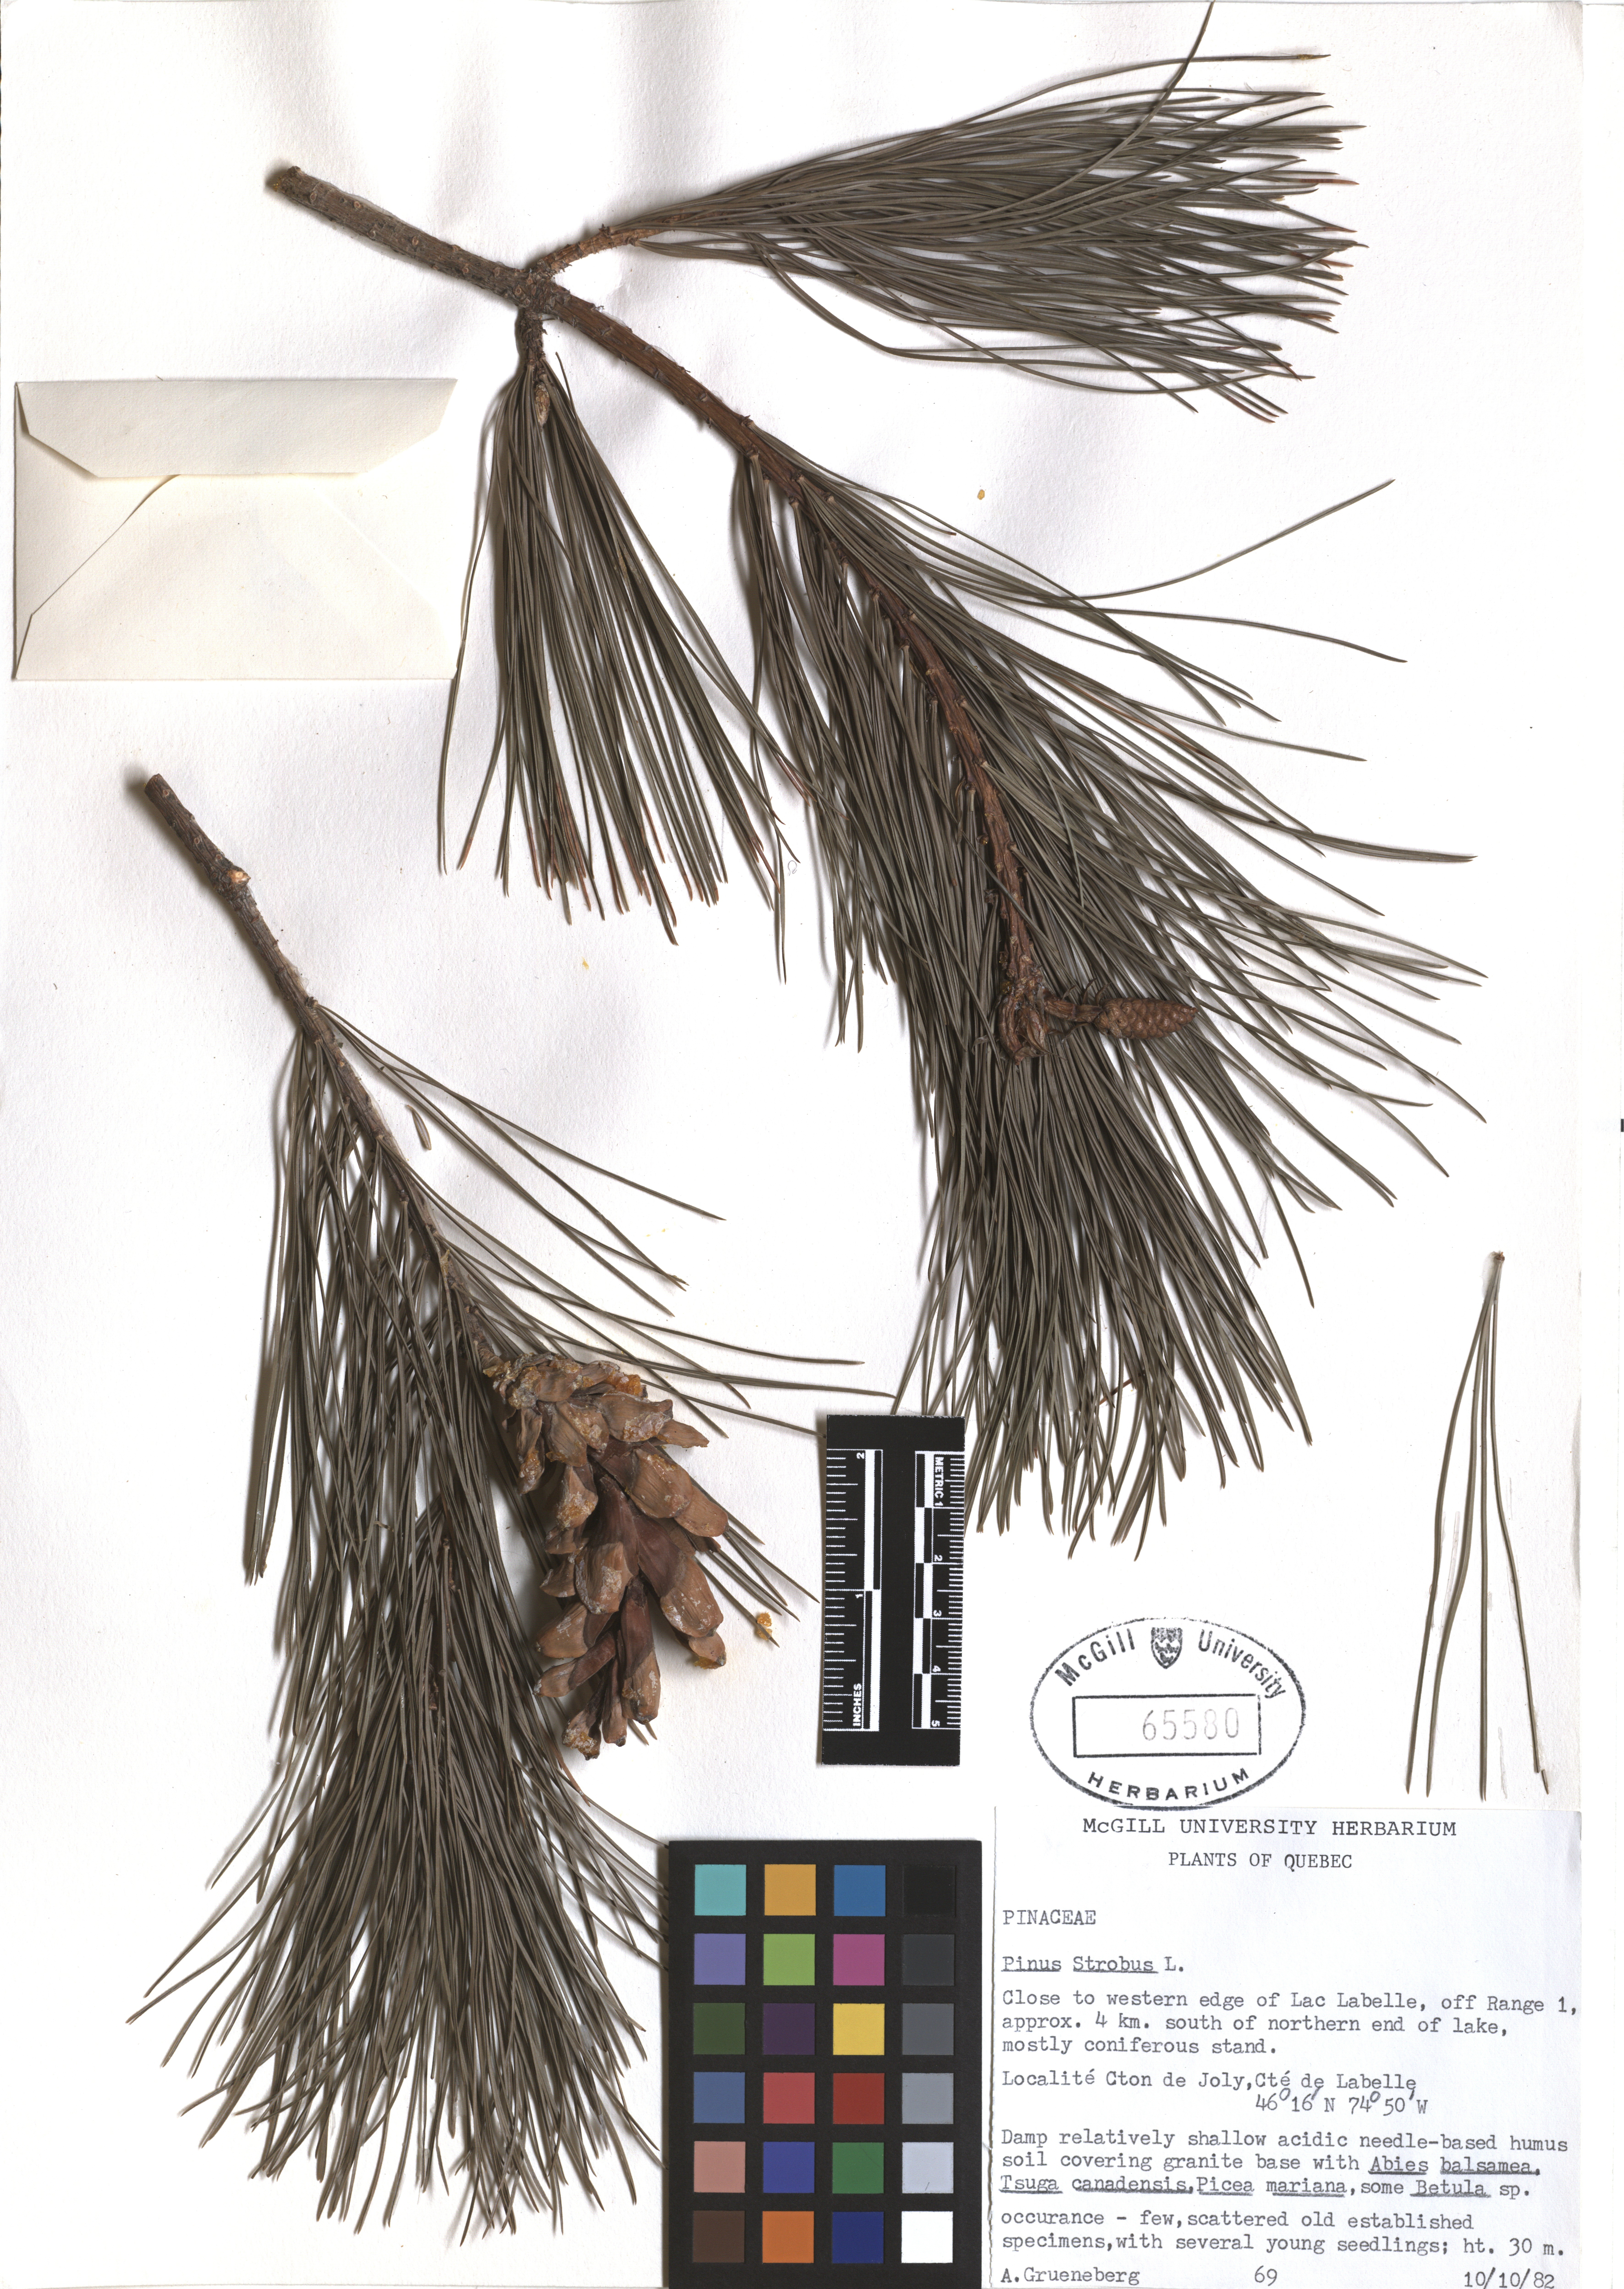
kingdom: Plantae
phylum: Tracheophyta
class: Pinopsida
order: Pinales
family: Pinaceae
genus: Pinus
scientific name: Pinus strobus
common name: Weymouth pine
